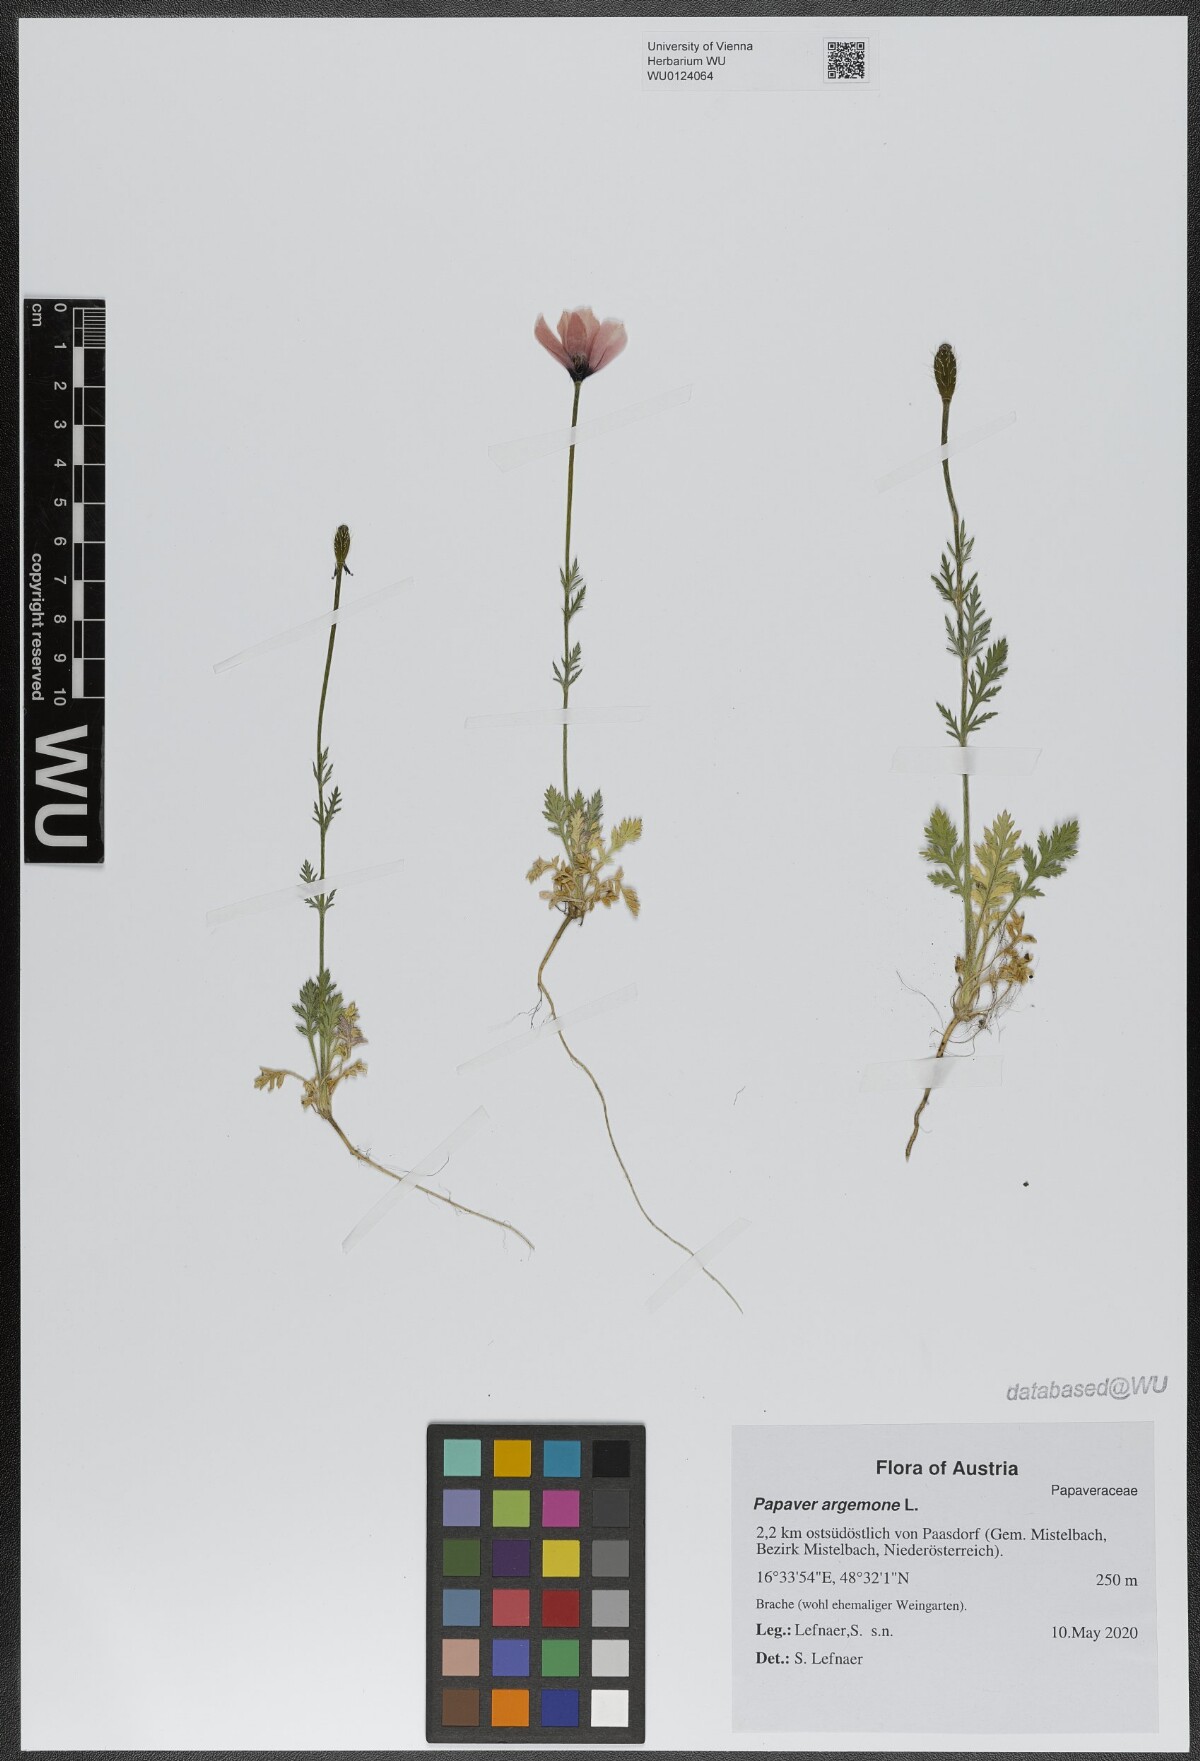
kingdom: Plantae
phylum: Tracheophyta
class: Magnoliopsida
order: Ranunculales
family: Papaveraceae
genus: Roemeria
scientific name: Roemeria argemone
